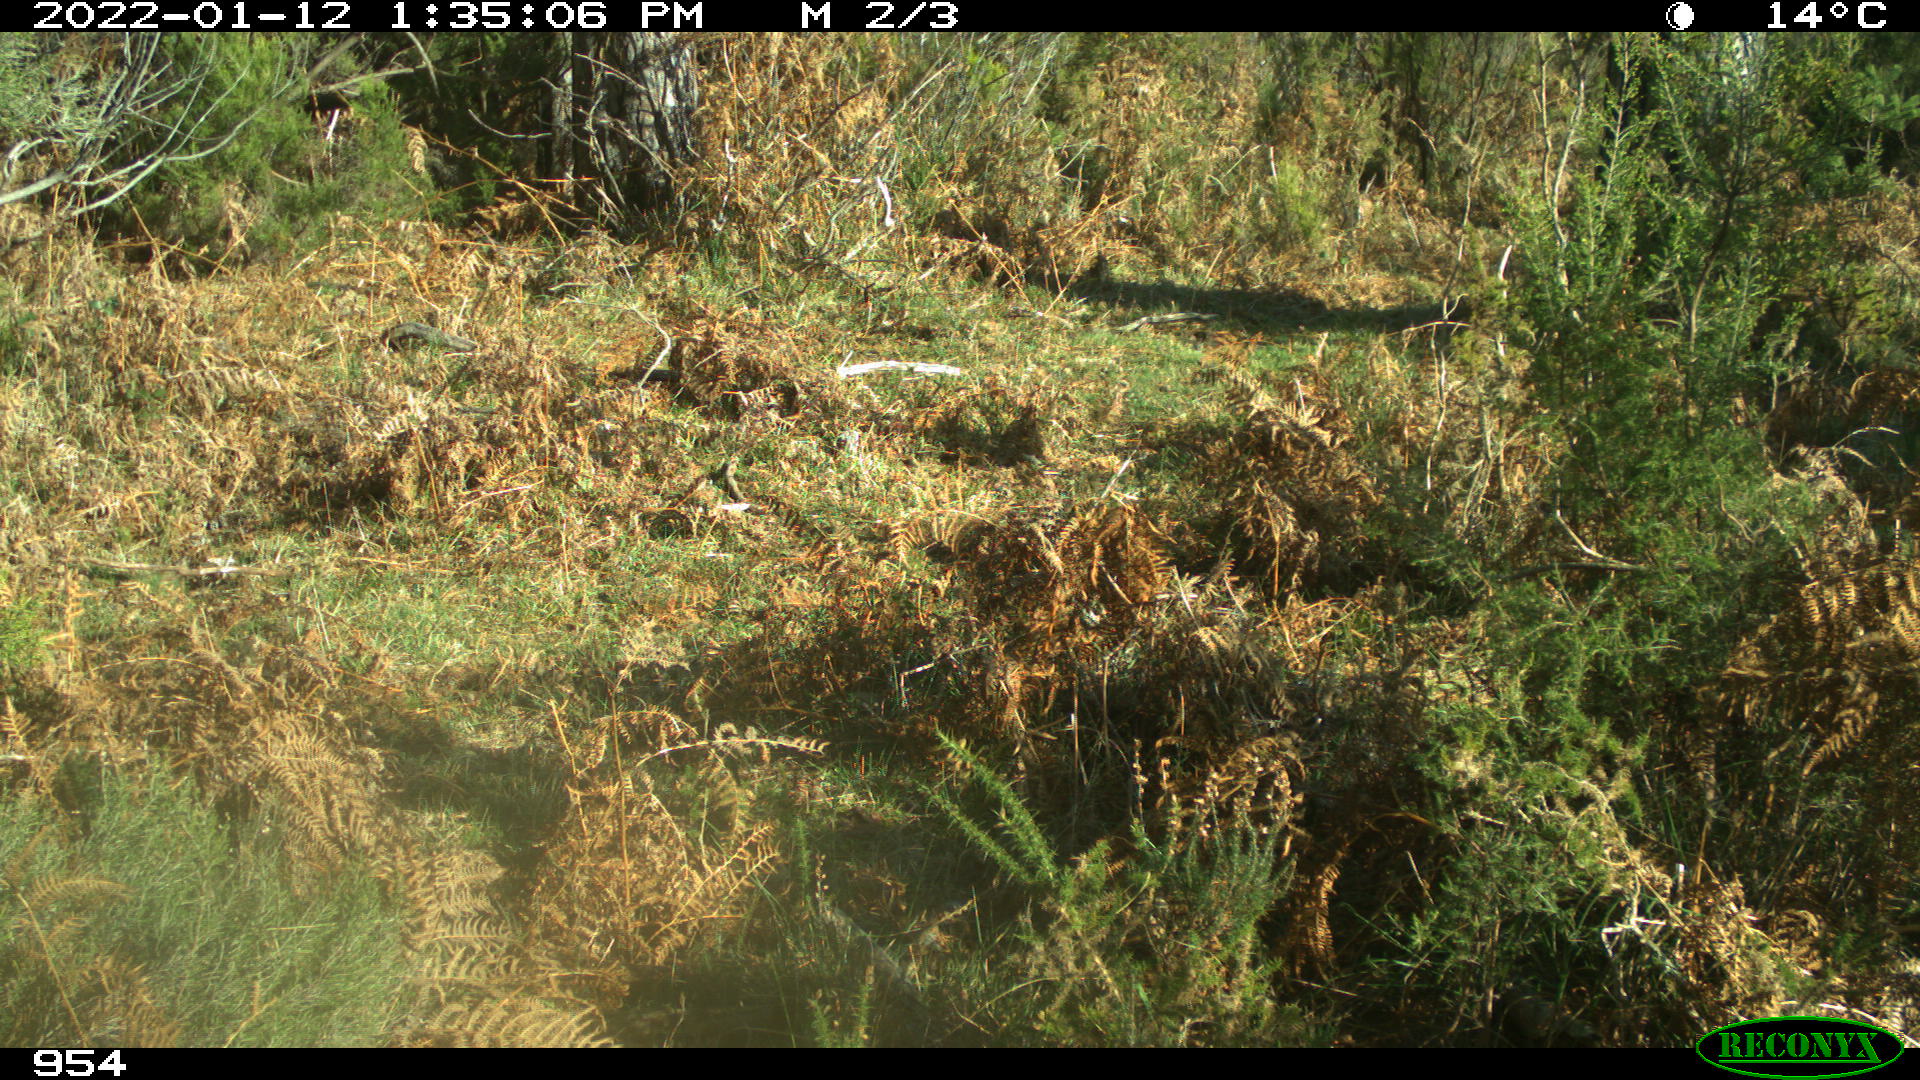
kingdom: Animalia
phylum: Chordata
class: Mammalia
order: Artiodactyla
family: Bovidae
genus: Bos
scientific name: Bos taurus
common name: Domesticated cattle
